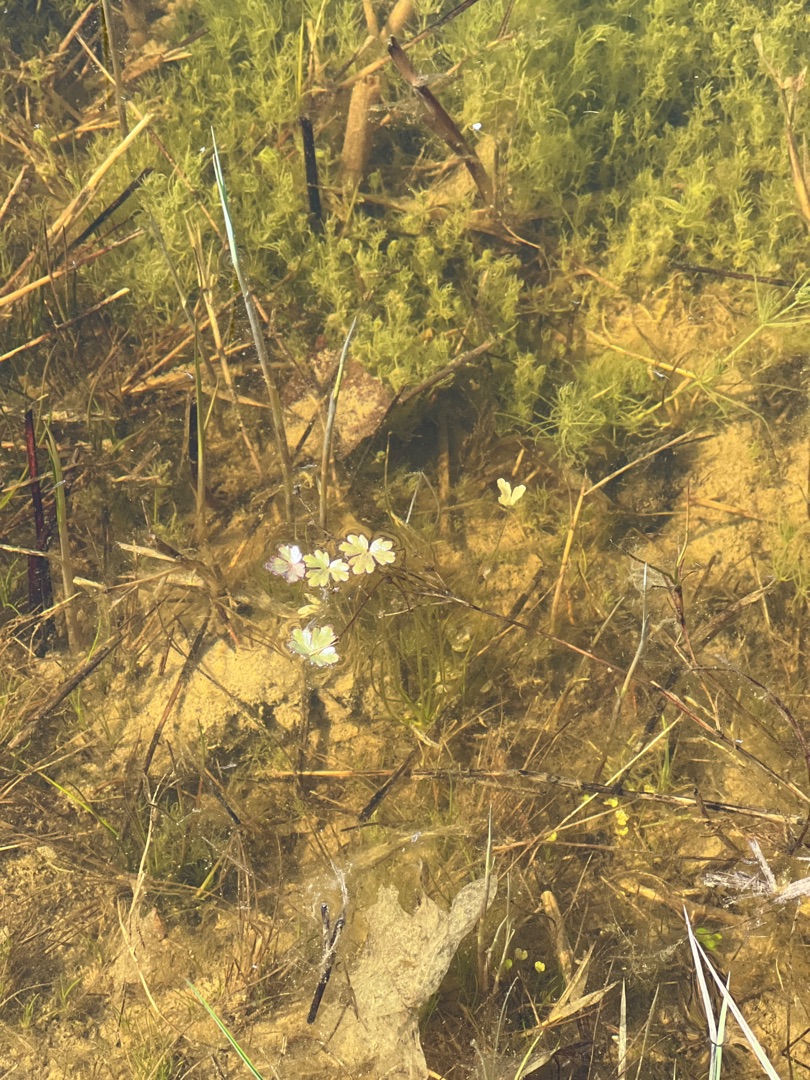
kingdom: Plantae
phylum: Tracheophyta
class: Magnoliopsida
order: Ranunculales
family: Ranunculaceae
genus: Ranunculus
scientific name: Ranunculus sceleratus
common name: Tigger-ranunkel
